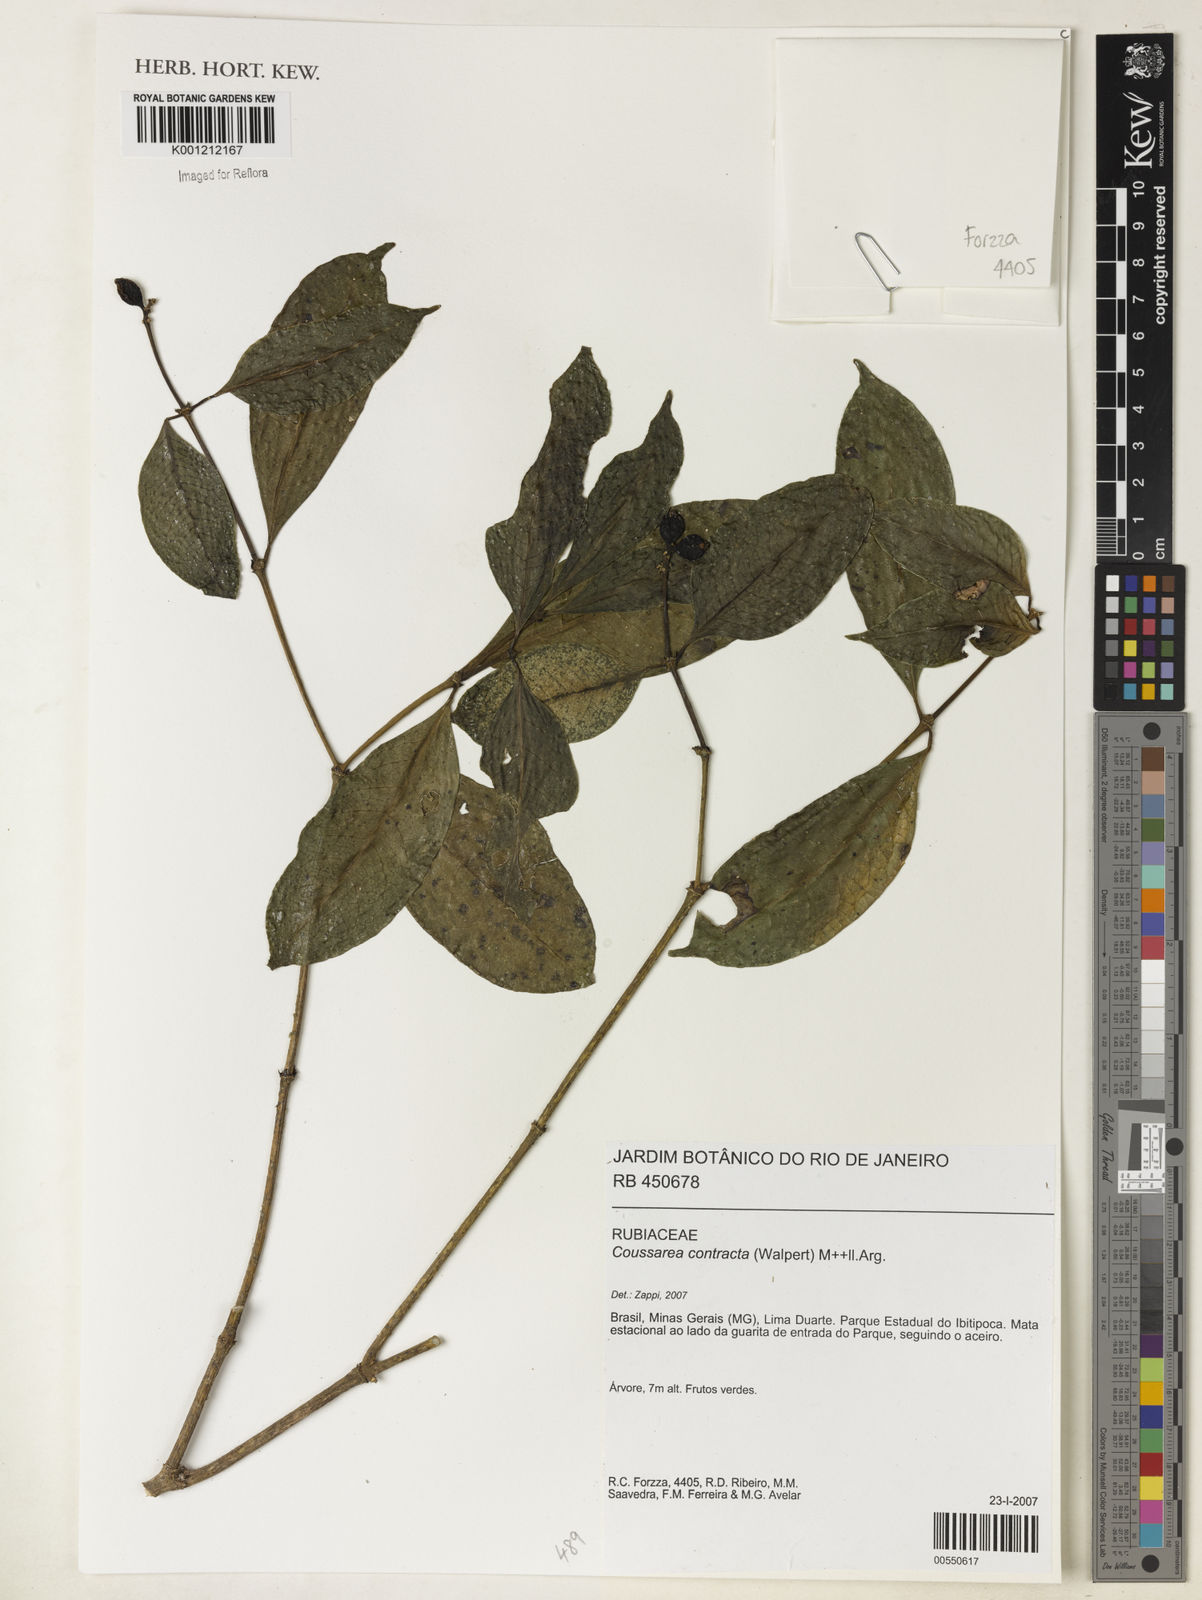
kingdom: Plantae
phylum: Tracheophyta
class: Magnoliopsida
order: Gentianales
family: Rubiaceae
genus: Coussarea
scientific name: Coussarea
